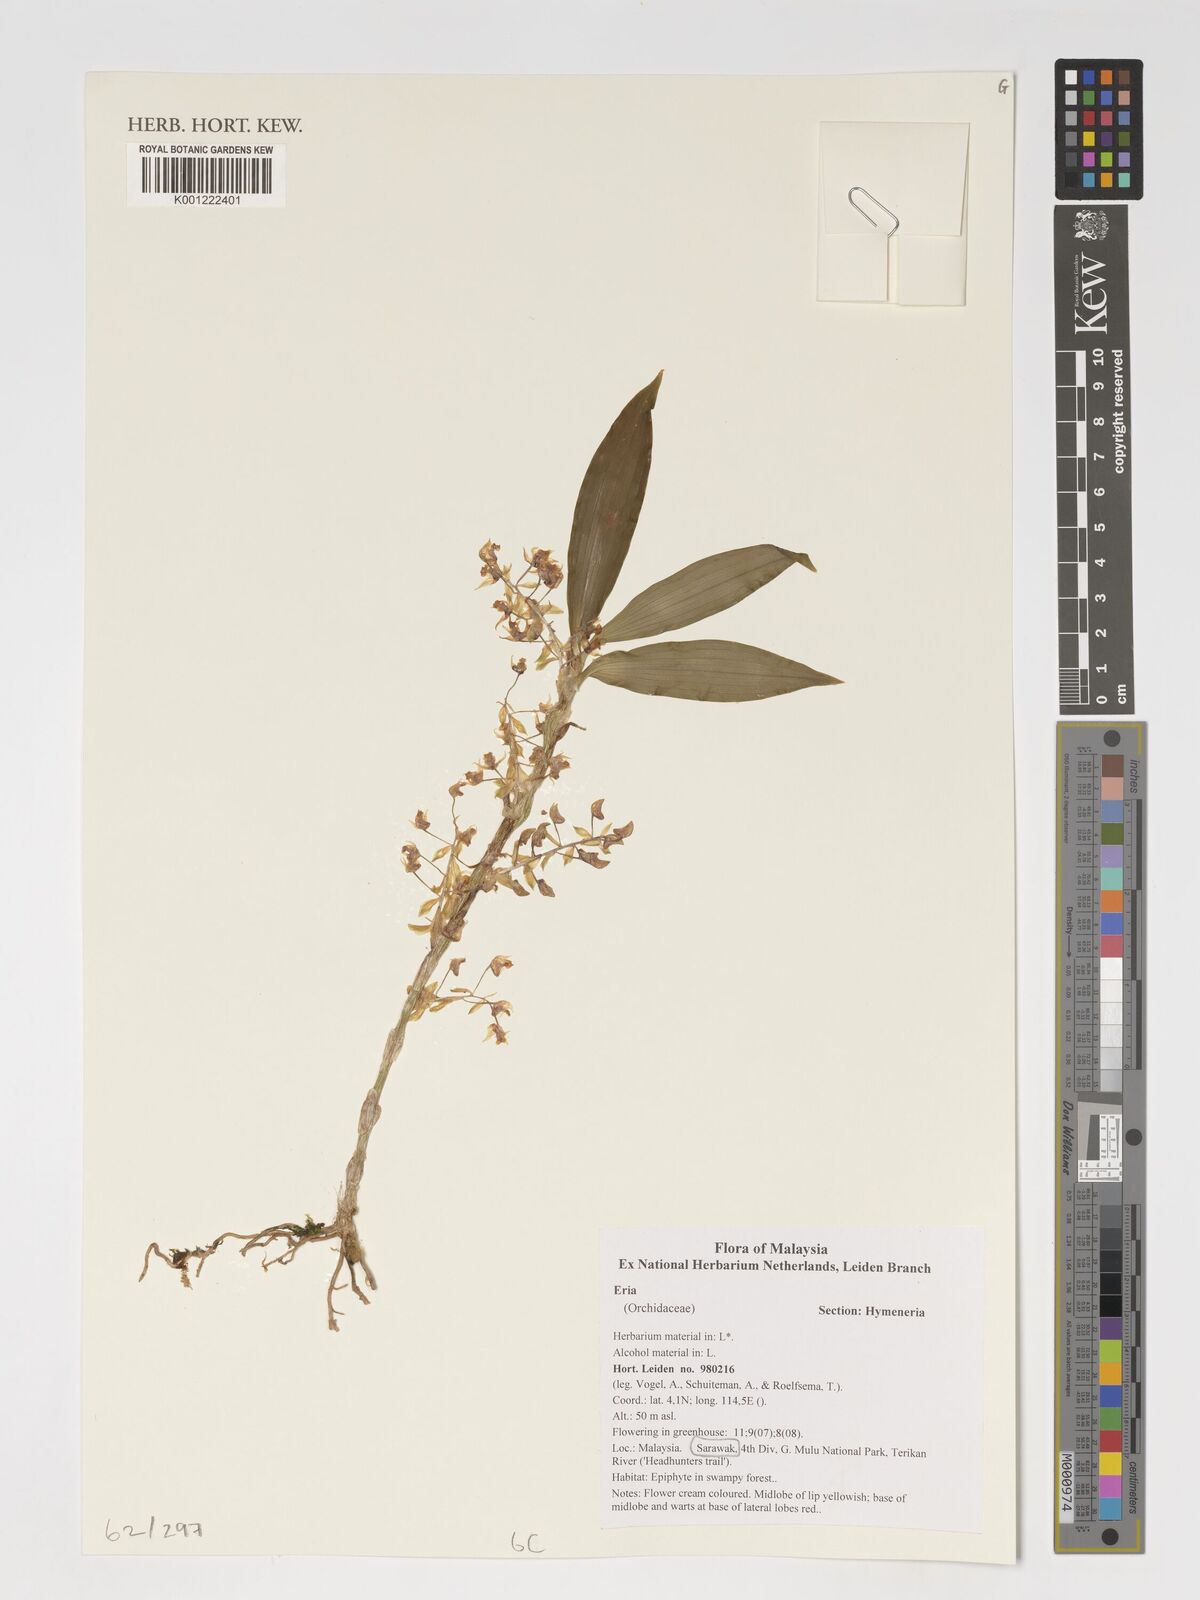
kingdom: Plantae
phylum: Tracheophyta
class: Liliopsida
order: Asparagales
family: Orchidaceae
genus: Eria
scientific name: Eria
